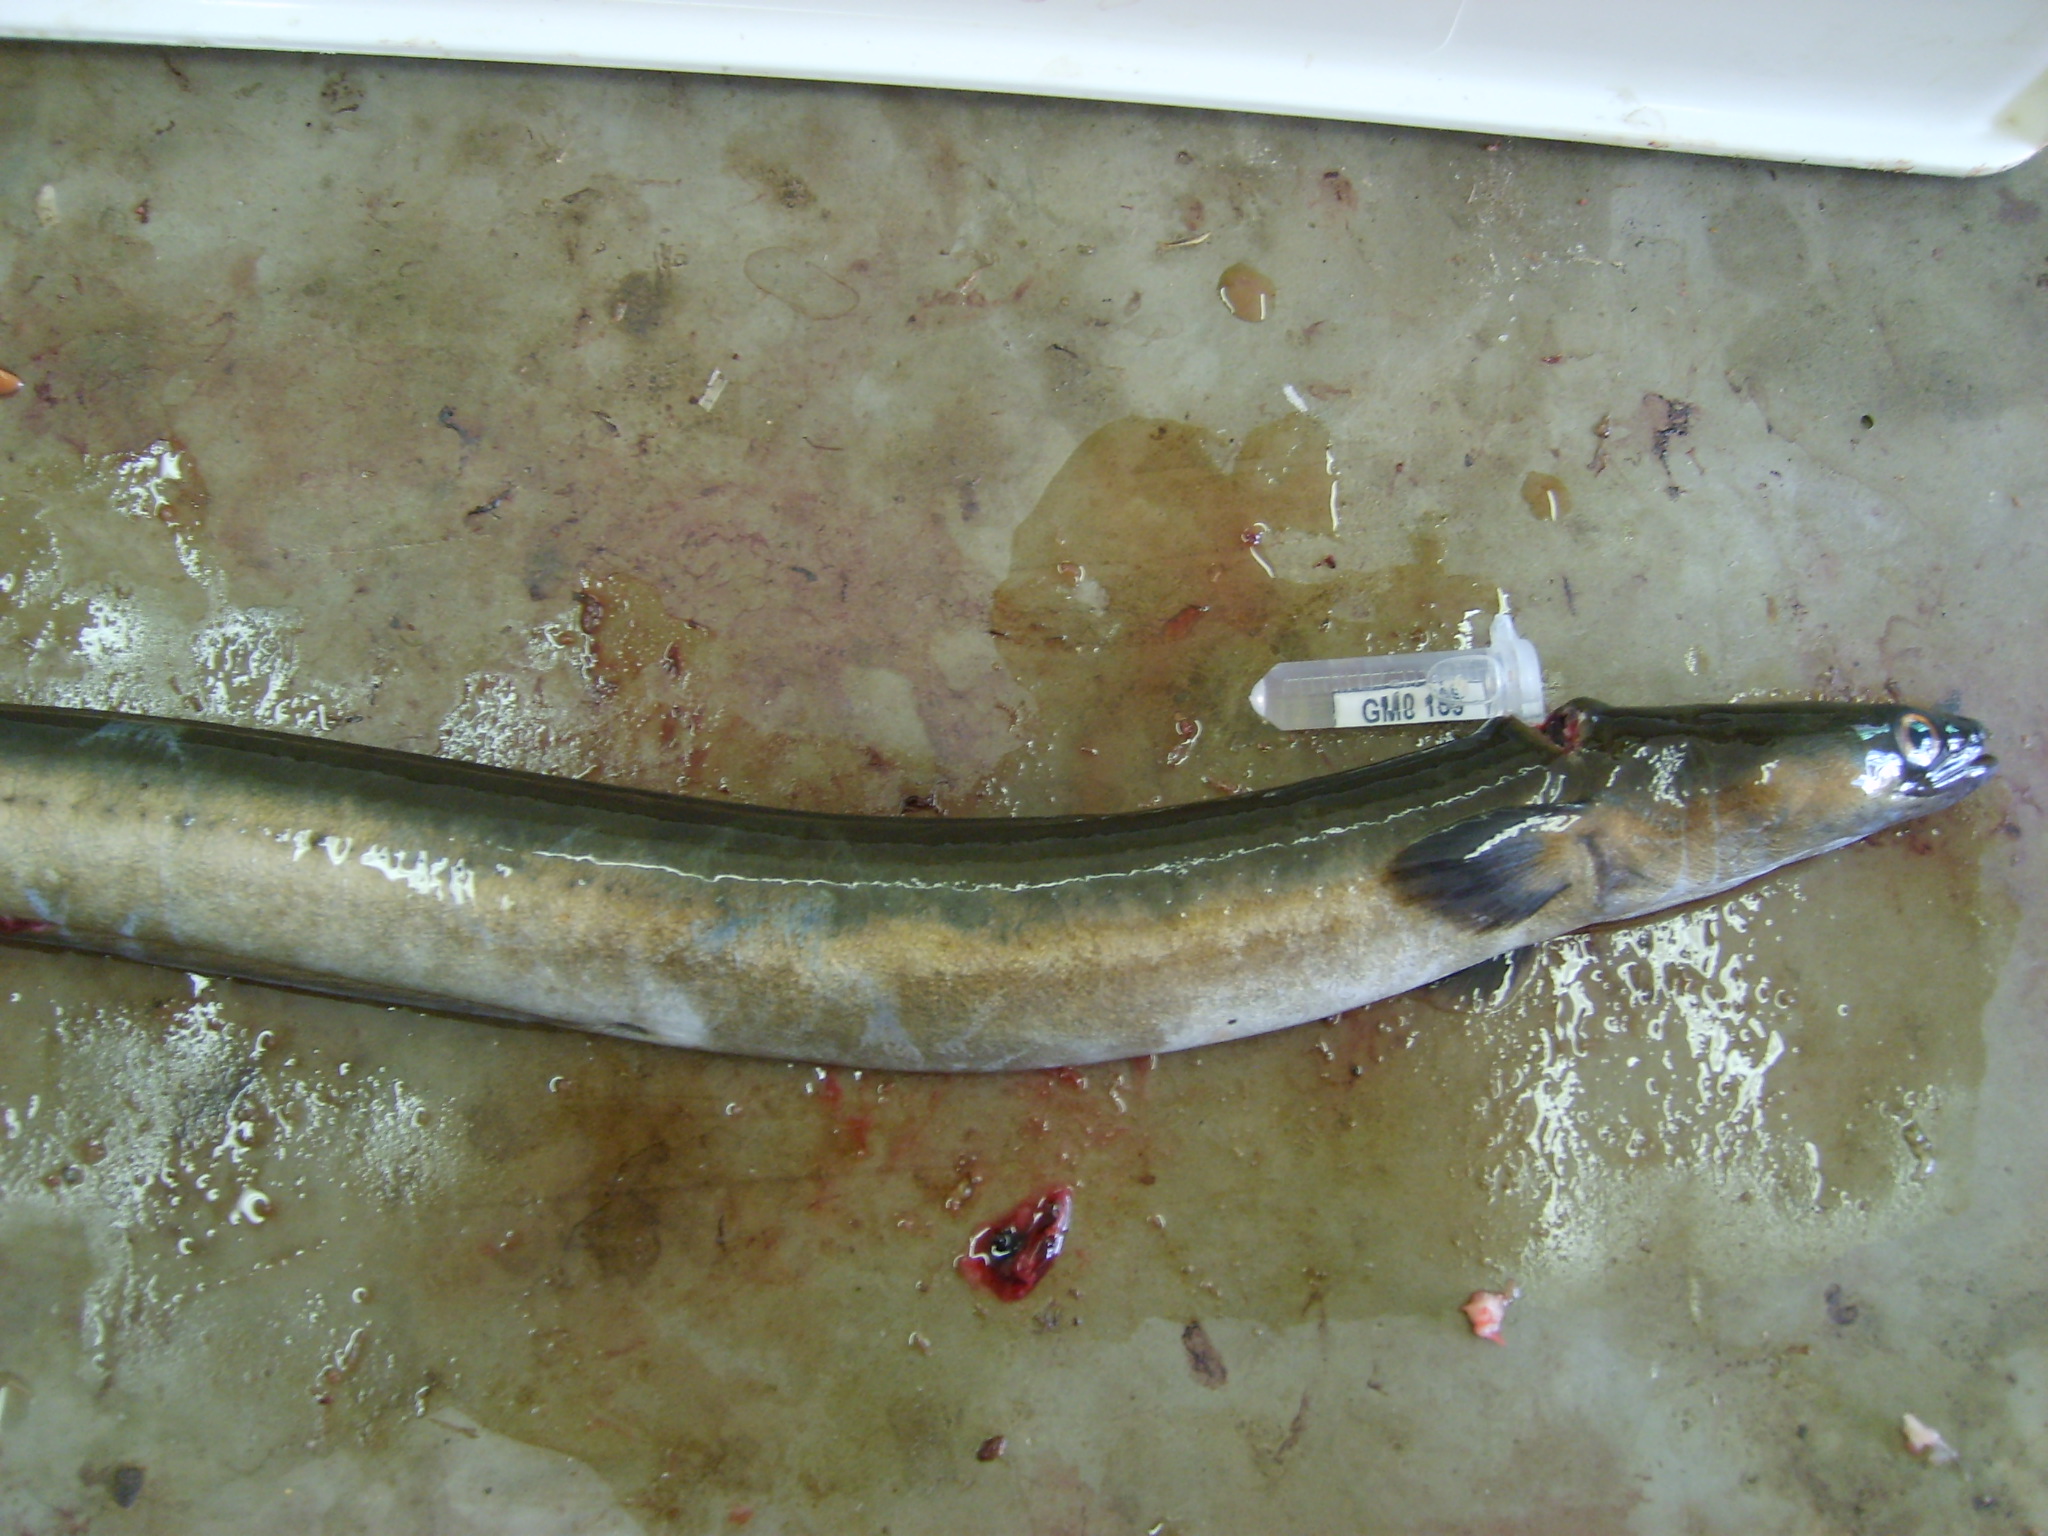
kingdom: Animalia
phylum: Chordata
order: Anguilliformes
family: Anguillidae
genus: Anguilla
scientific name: Anguilla mossambica
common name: African longfin eel
